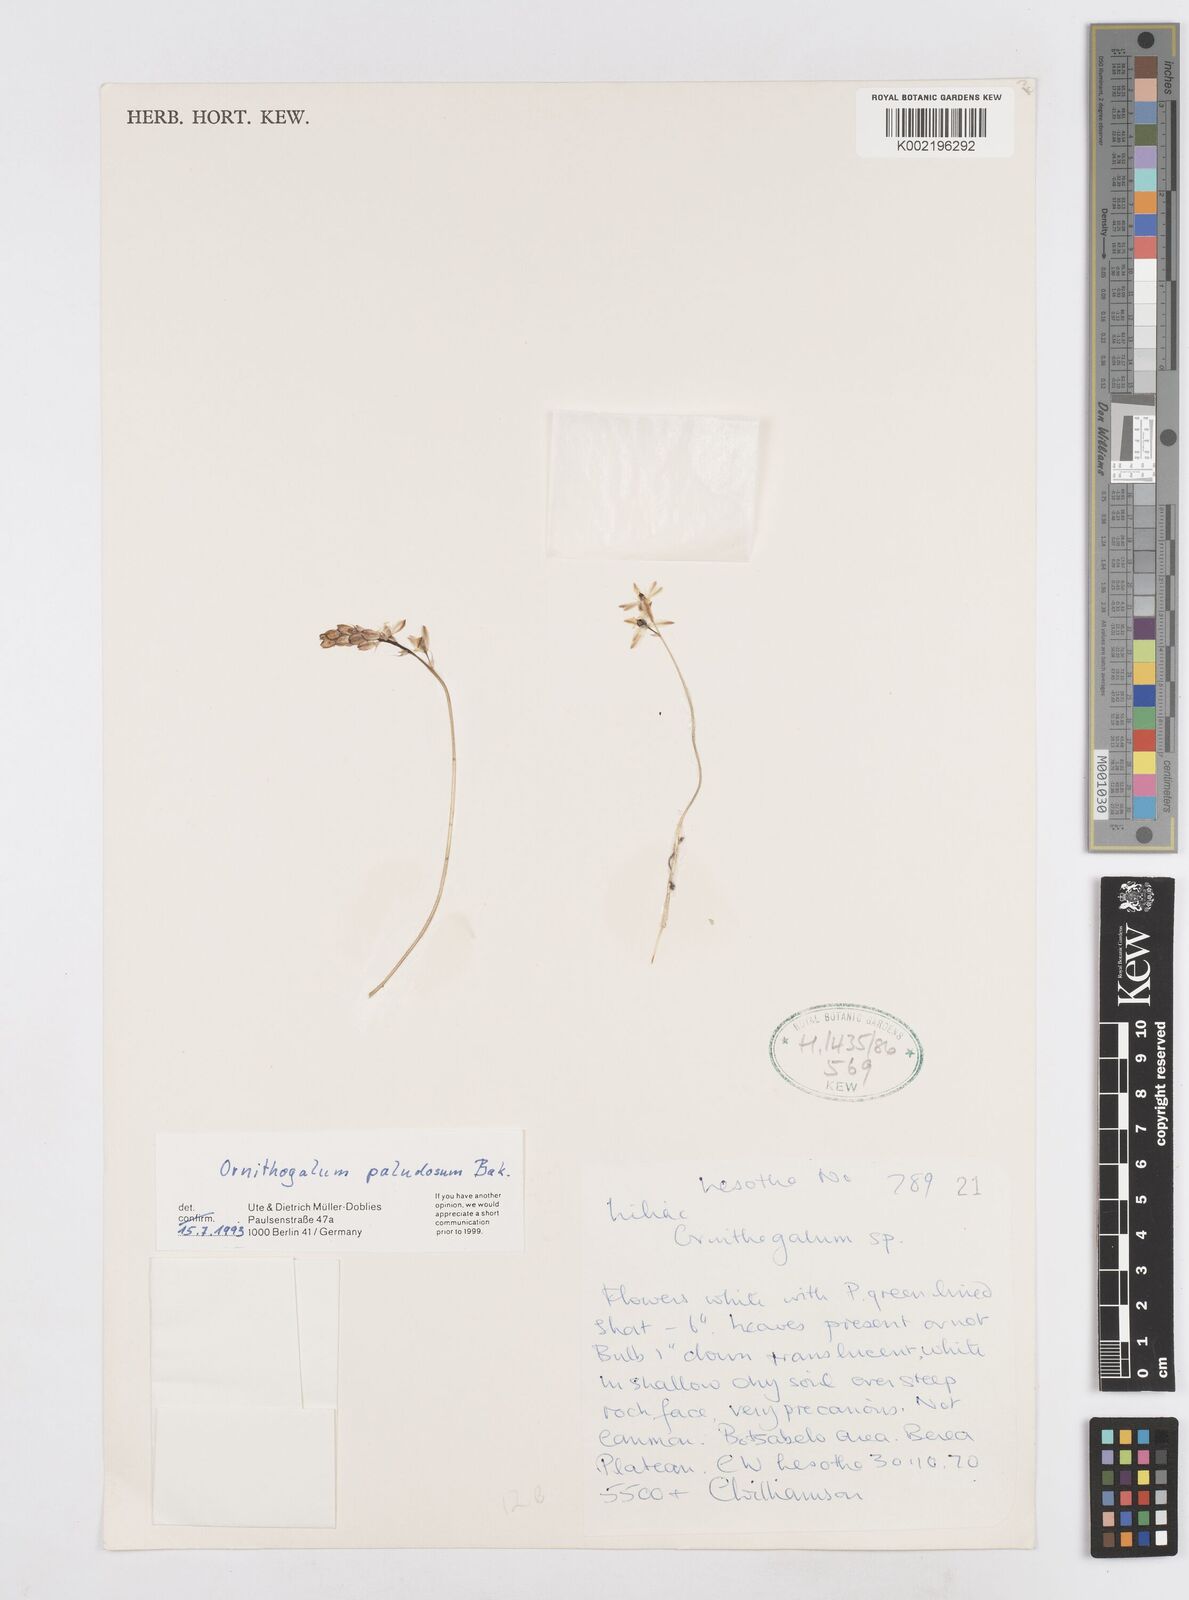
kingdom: Plantae
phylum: Tracheophyta
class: Liliopsida
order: Asparagales
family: Asparagaceae
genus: Ornithogalum
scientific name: Ornithogalum paludosum
